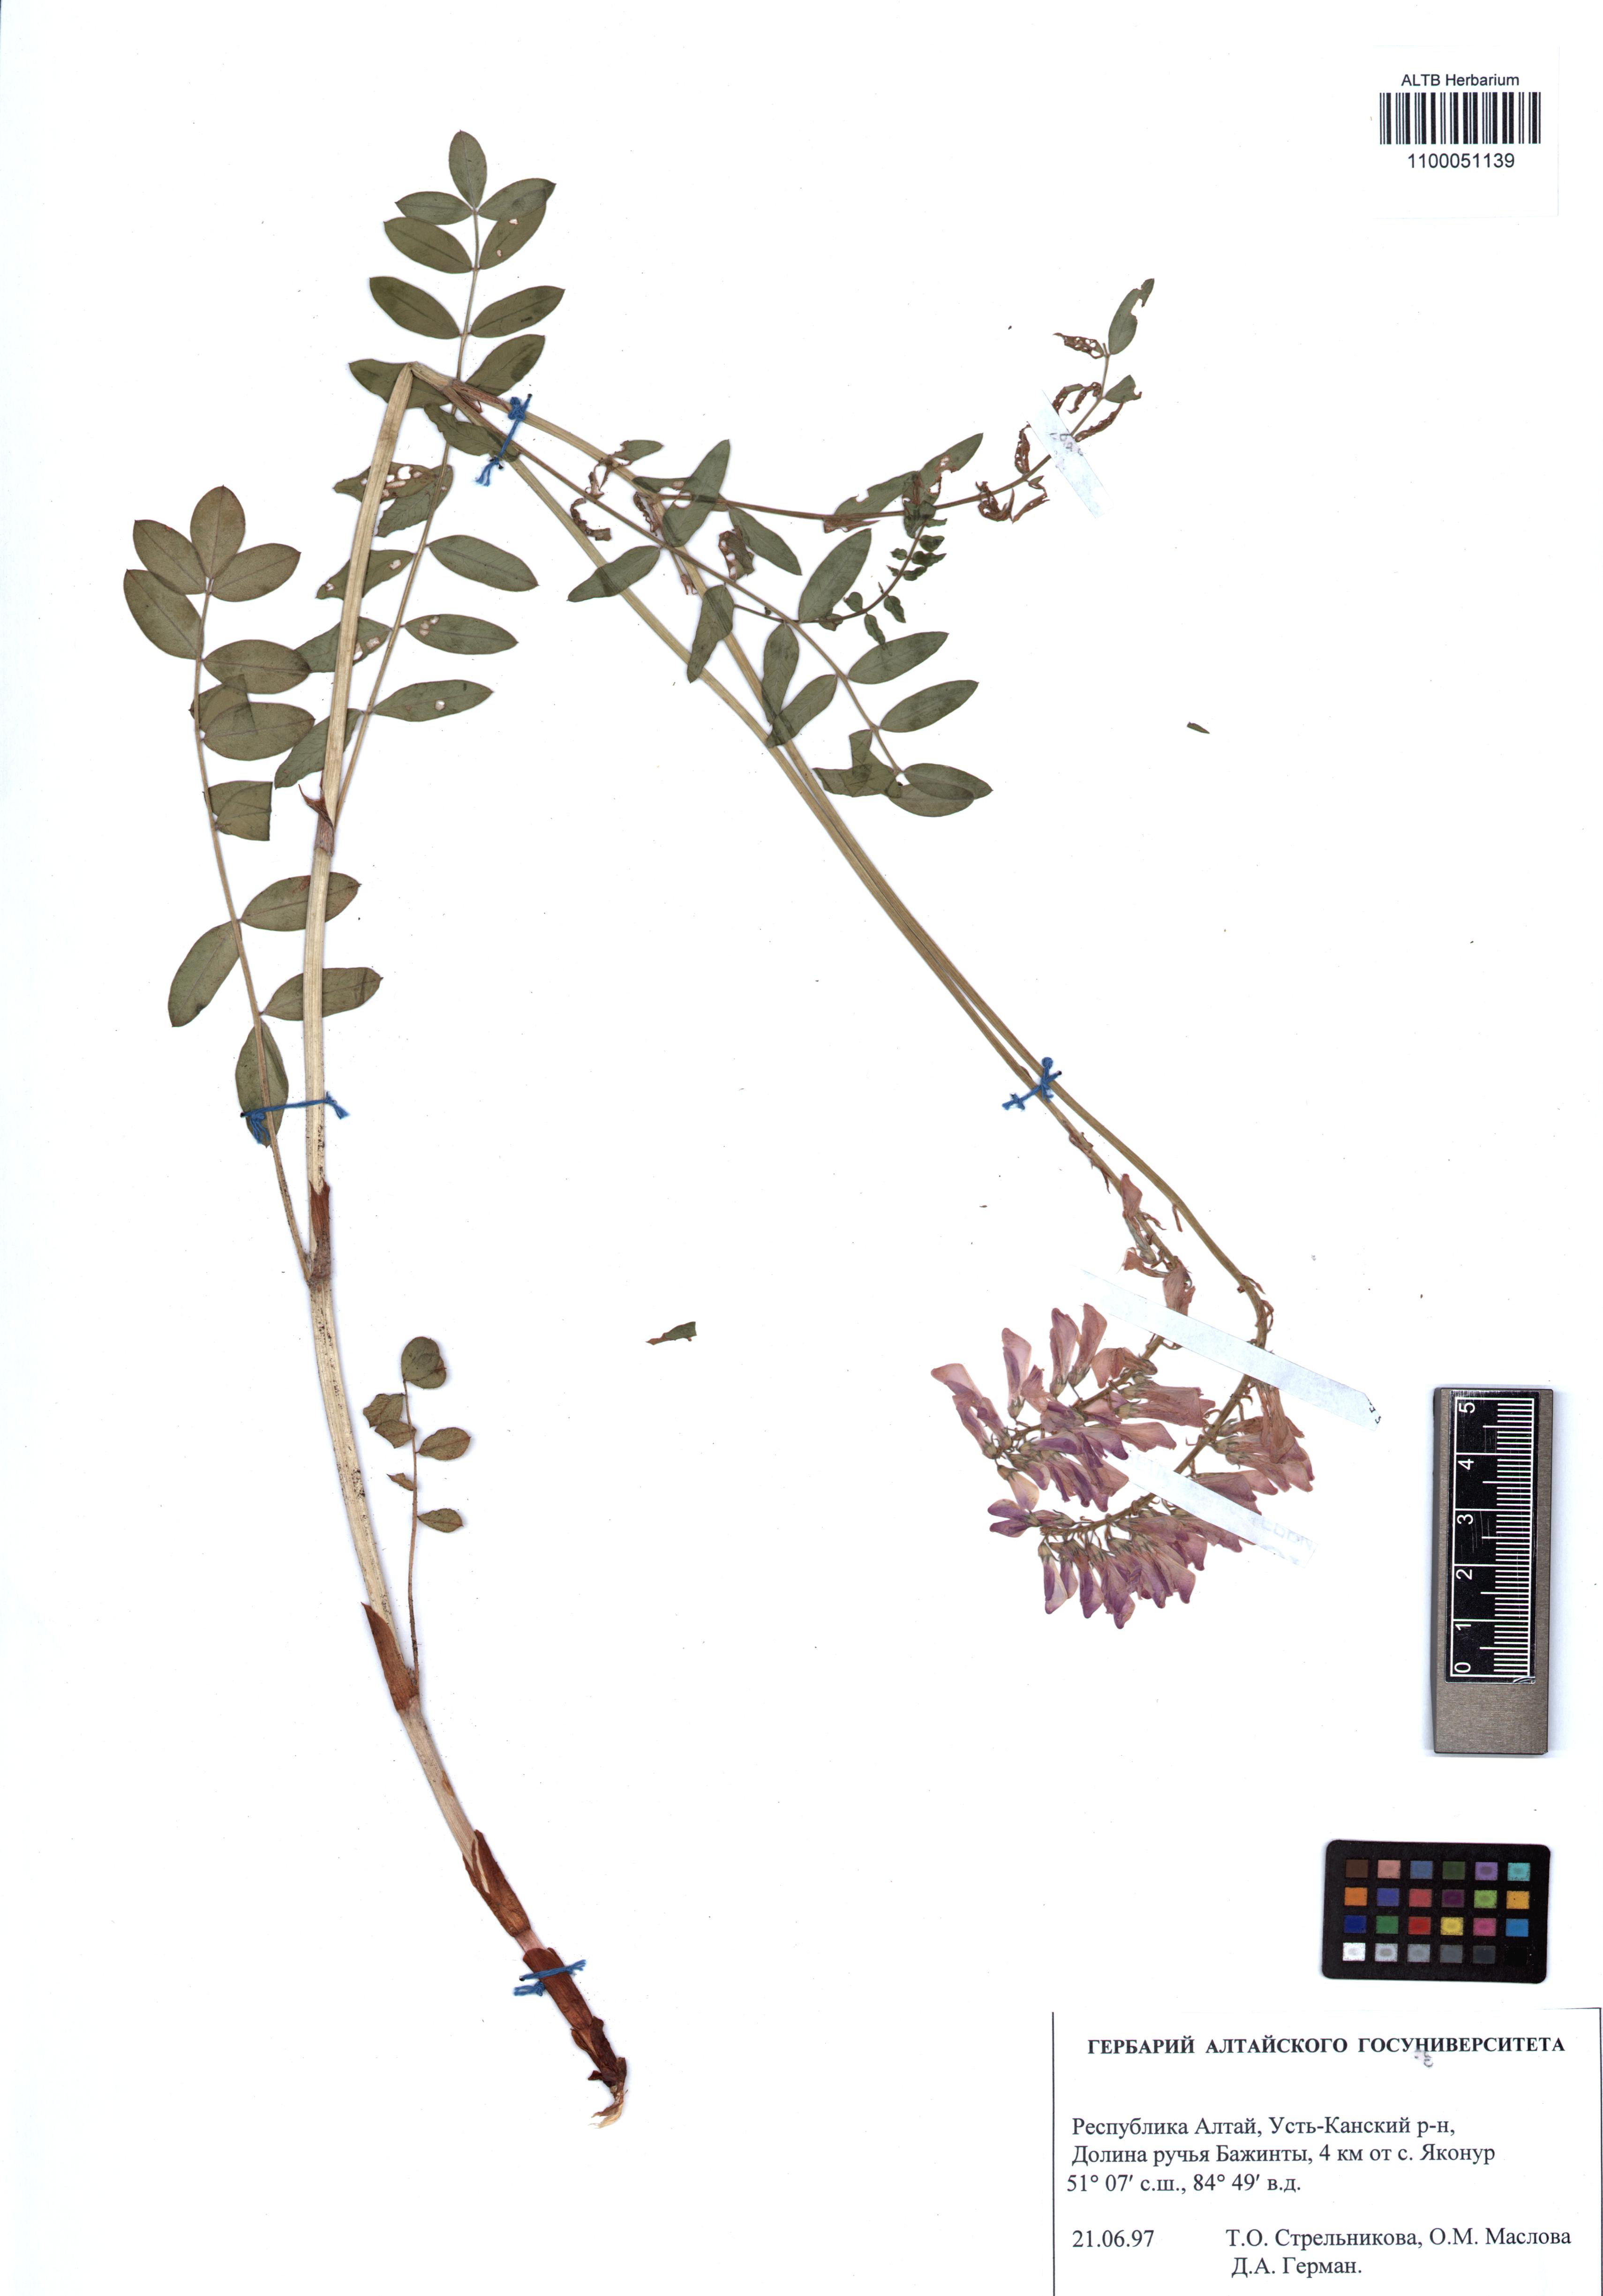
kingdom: Plantae
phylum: Tracheophyta
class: Magnoliopsida
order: Fabales
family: Fabaceae
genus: Hedysarum
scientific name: Hedysarum neglectum
